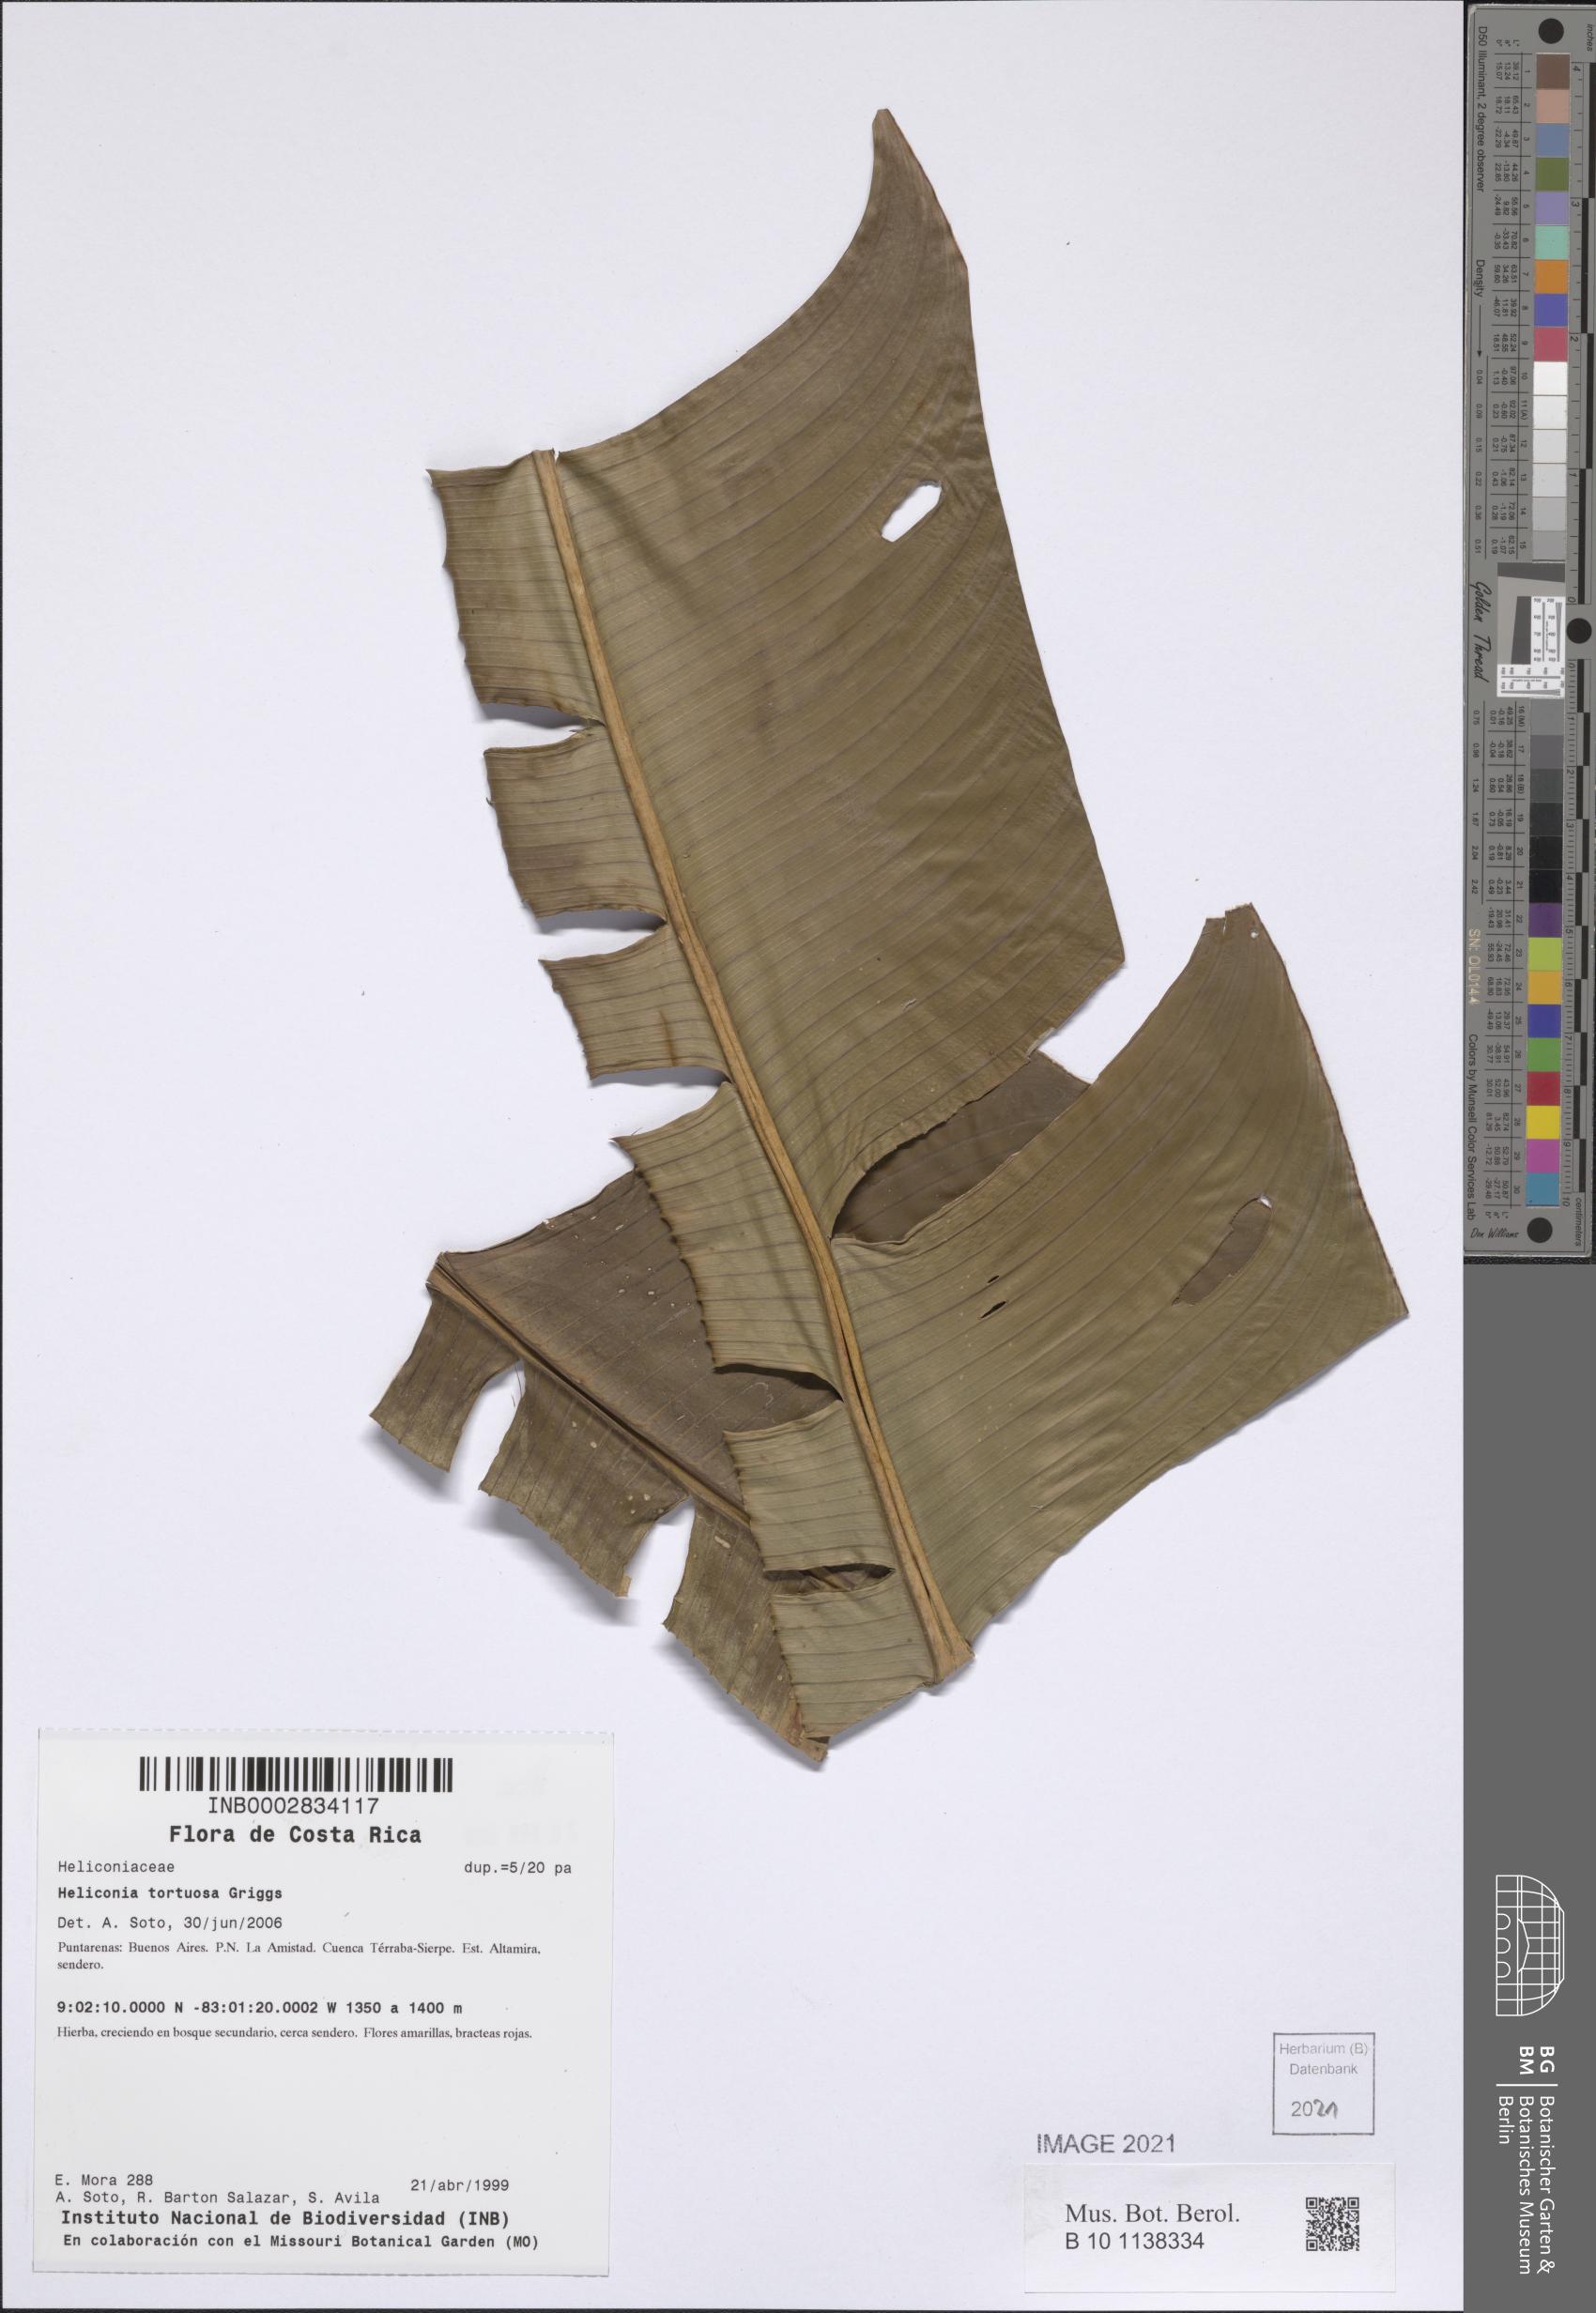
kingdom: Plantae
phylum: Tracheophyta
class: Liliopsida
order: Zingiberales
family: Heliconiaceae
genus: Heliconia
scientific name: Heliconia tortuosa
